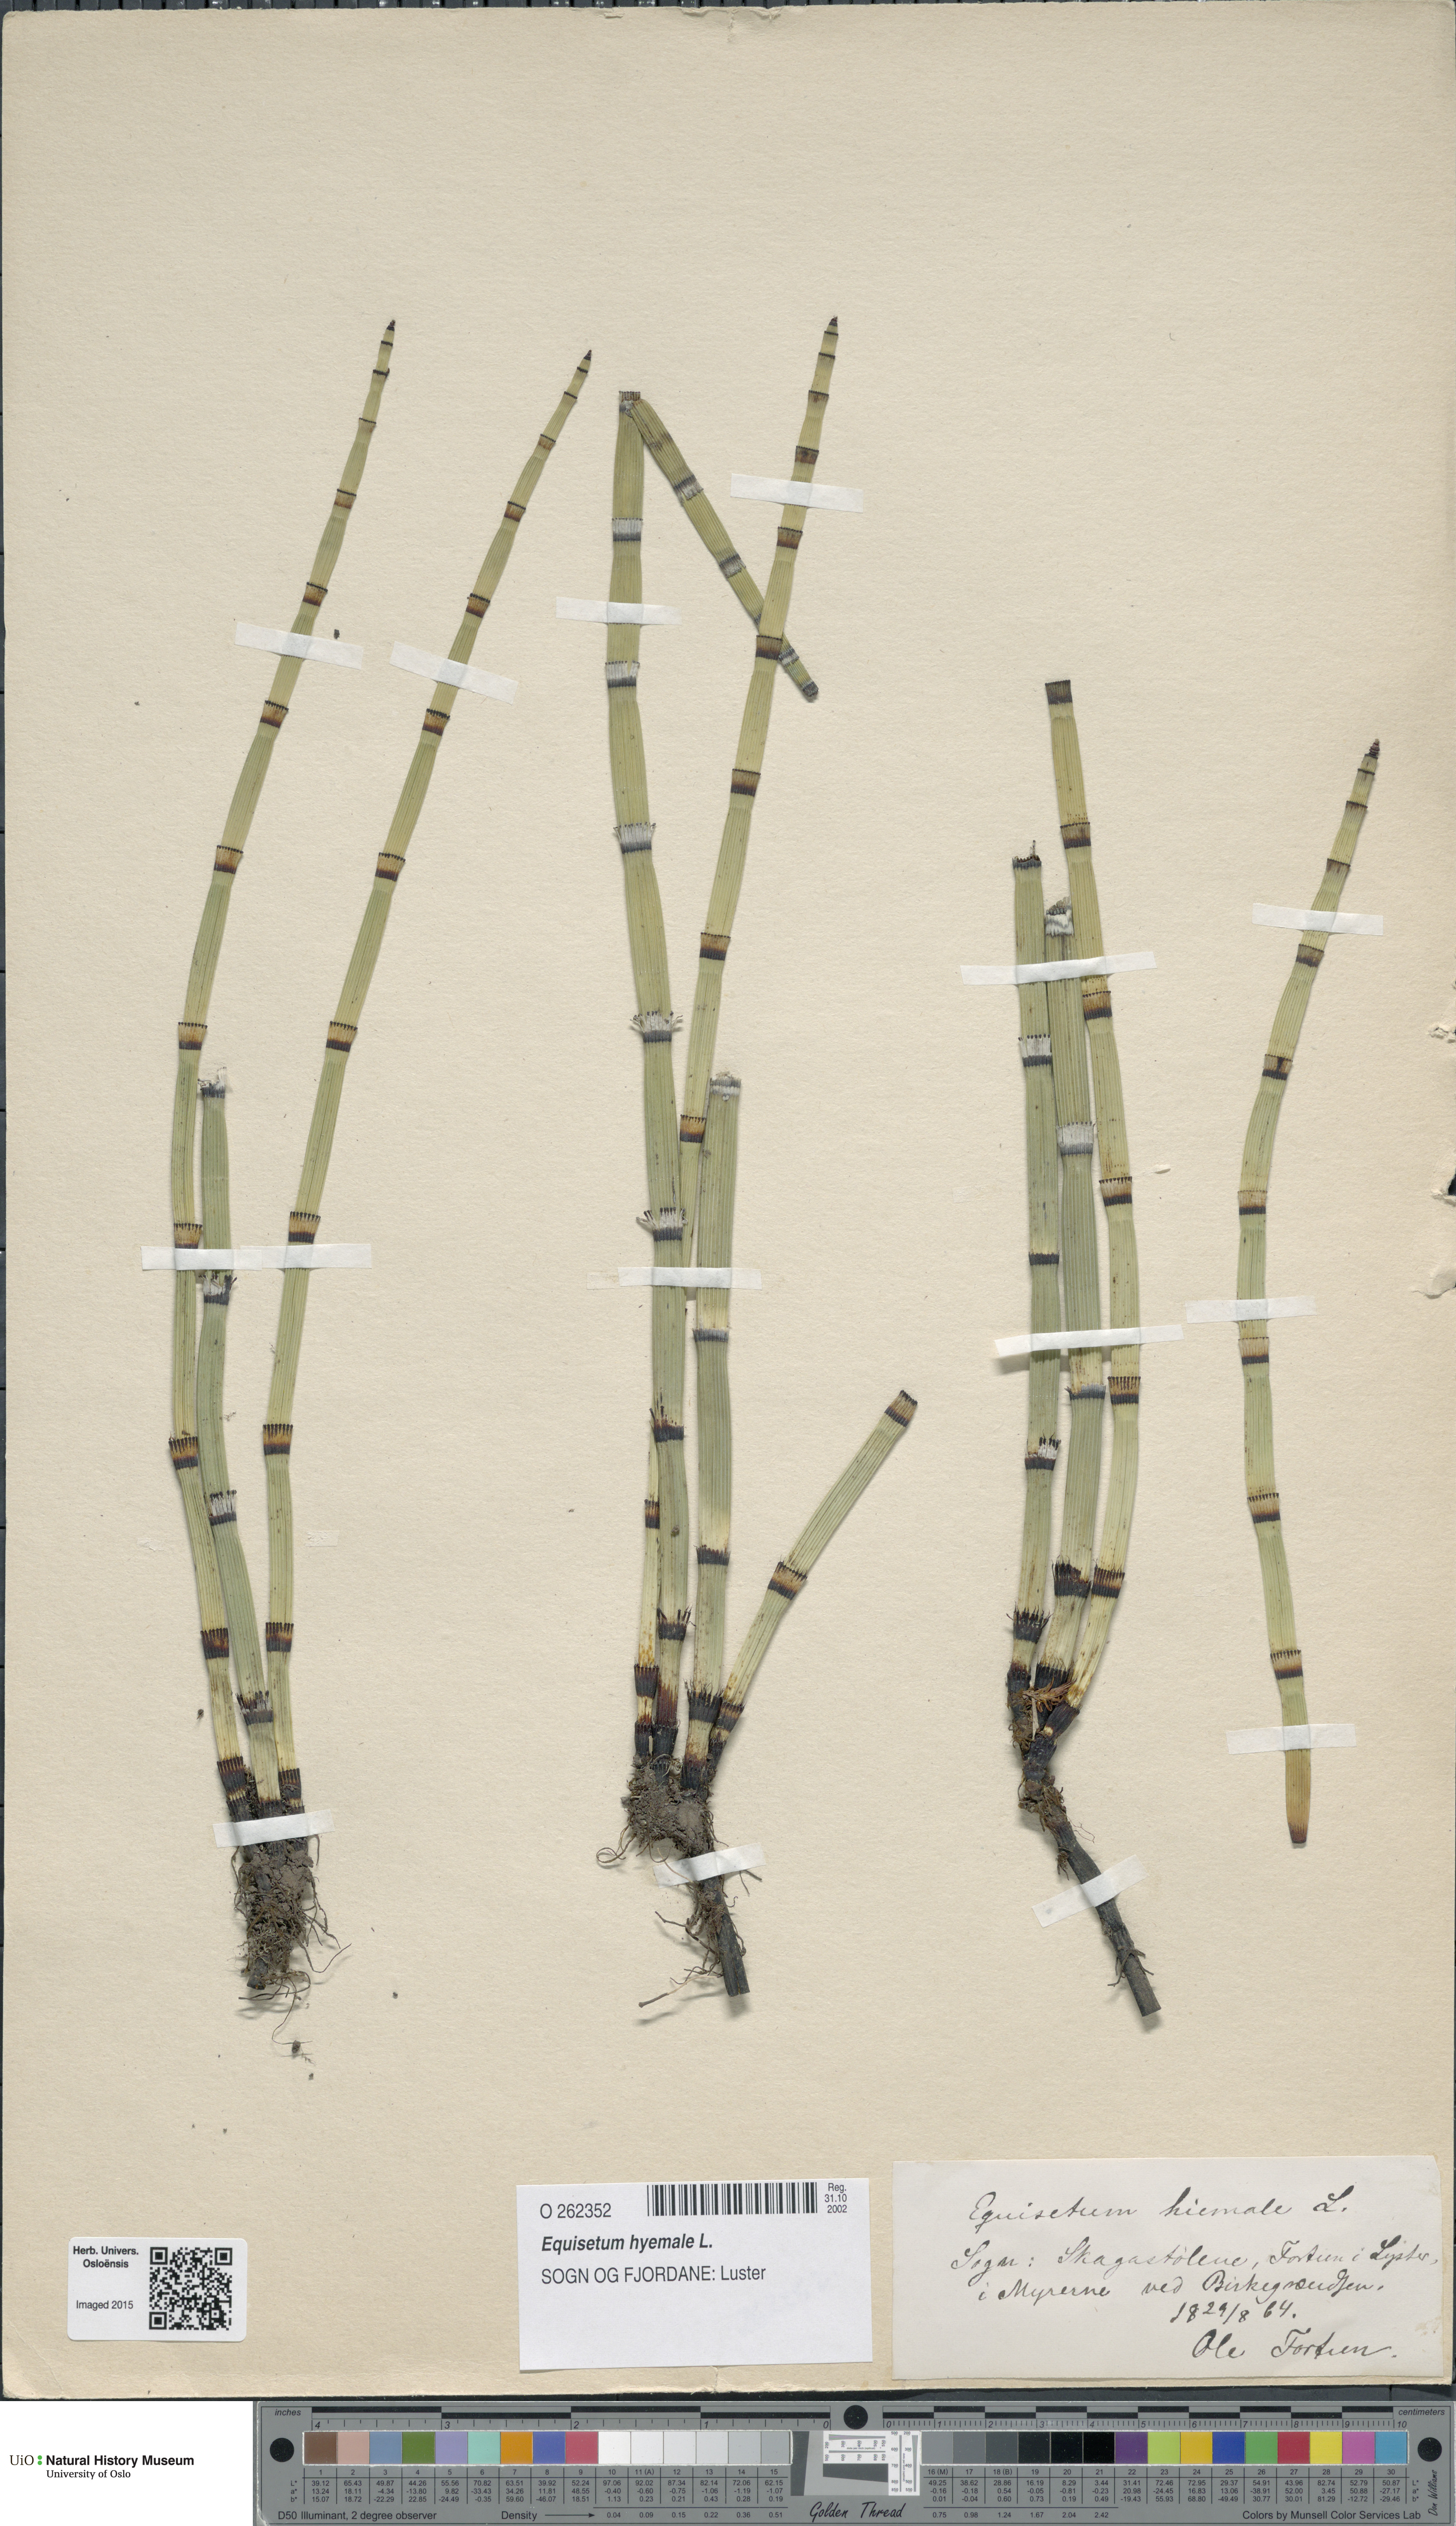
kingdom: Plantae
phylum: Tracheophyta
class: Polypodiopsida
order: Equisetales
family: Equisetaceae
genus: Equisetum
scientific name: Equisetum hyemale
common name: Rough horsetail
